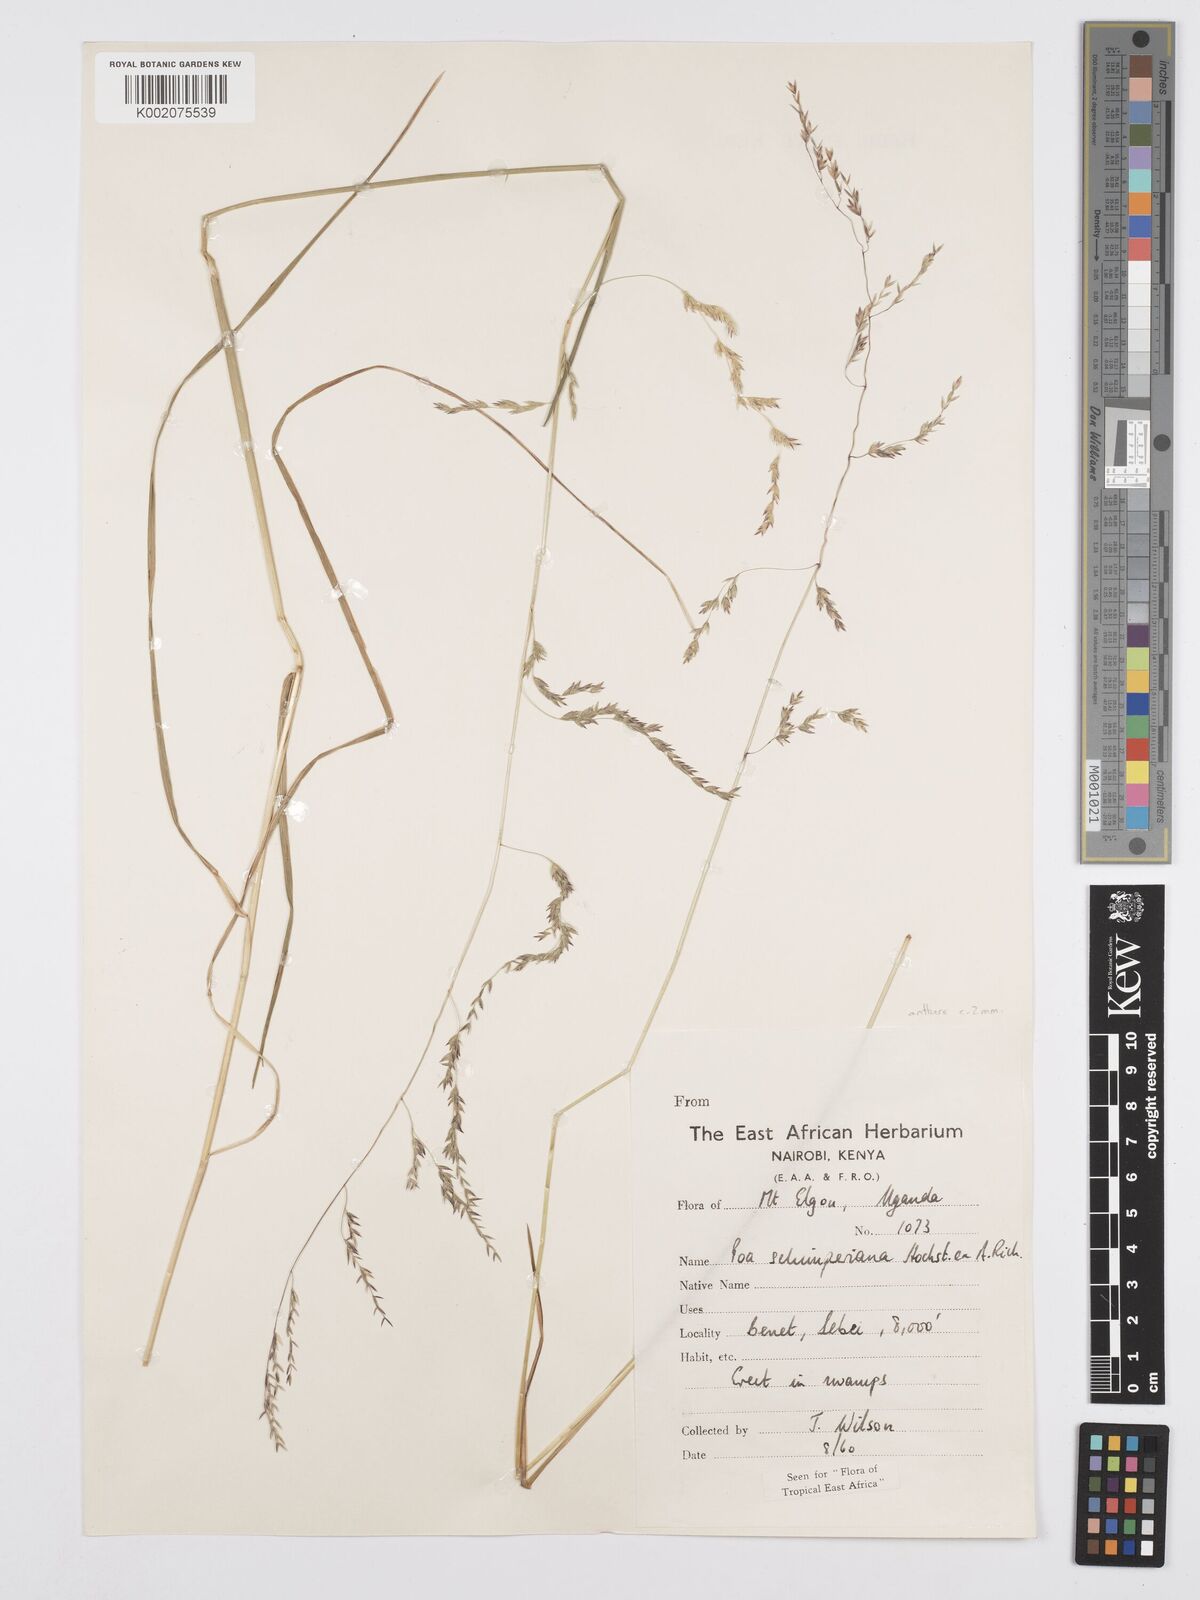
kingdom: Plantae
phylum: Tracheophyta
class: Liliopsida
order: Poales
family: Poaceae
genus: Poa
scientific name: Poa schimperiana
